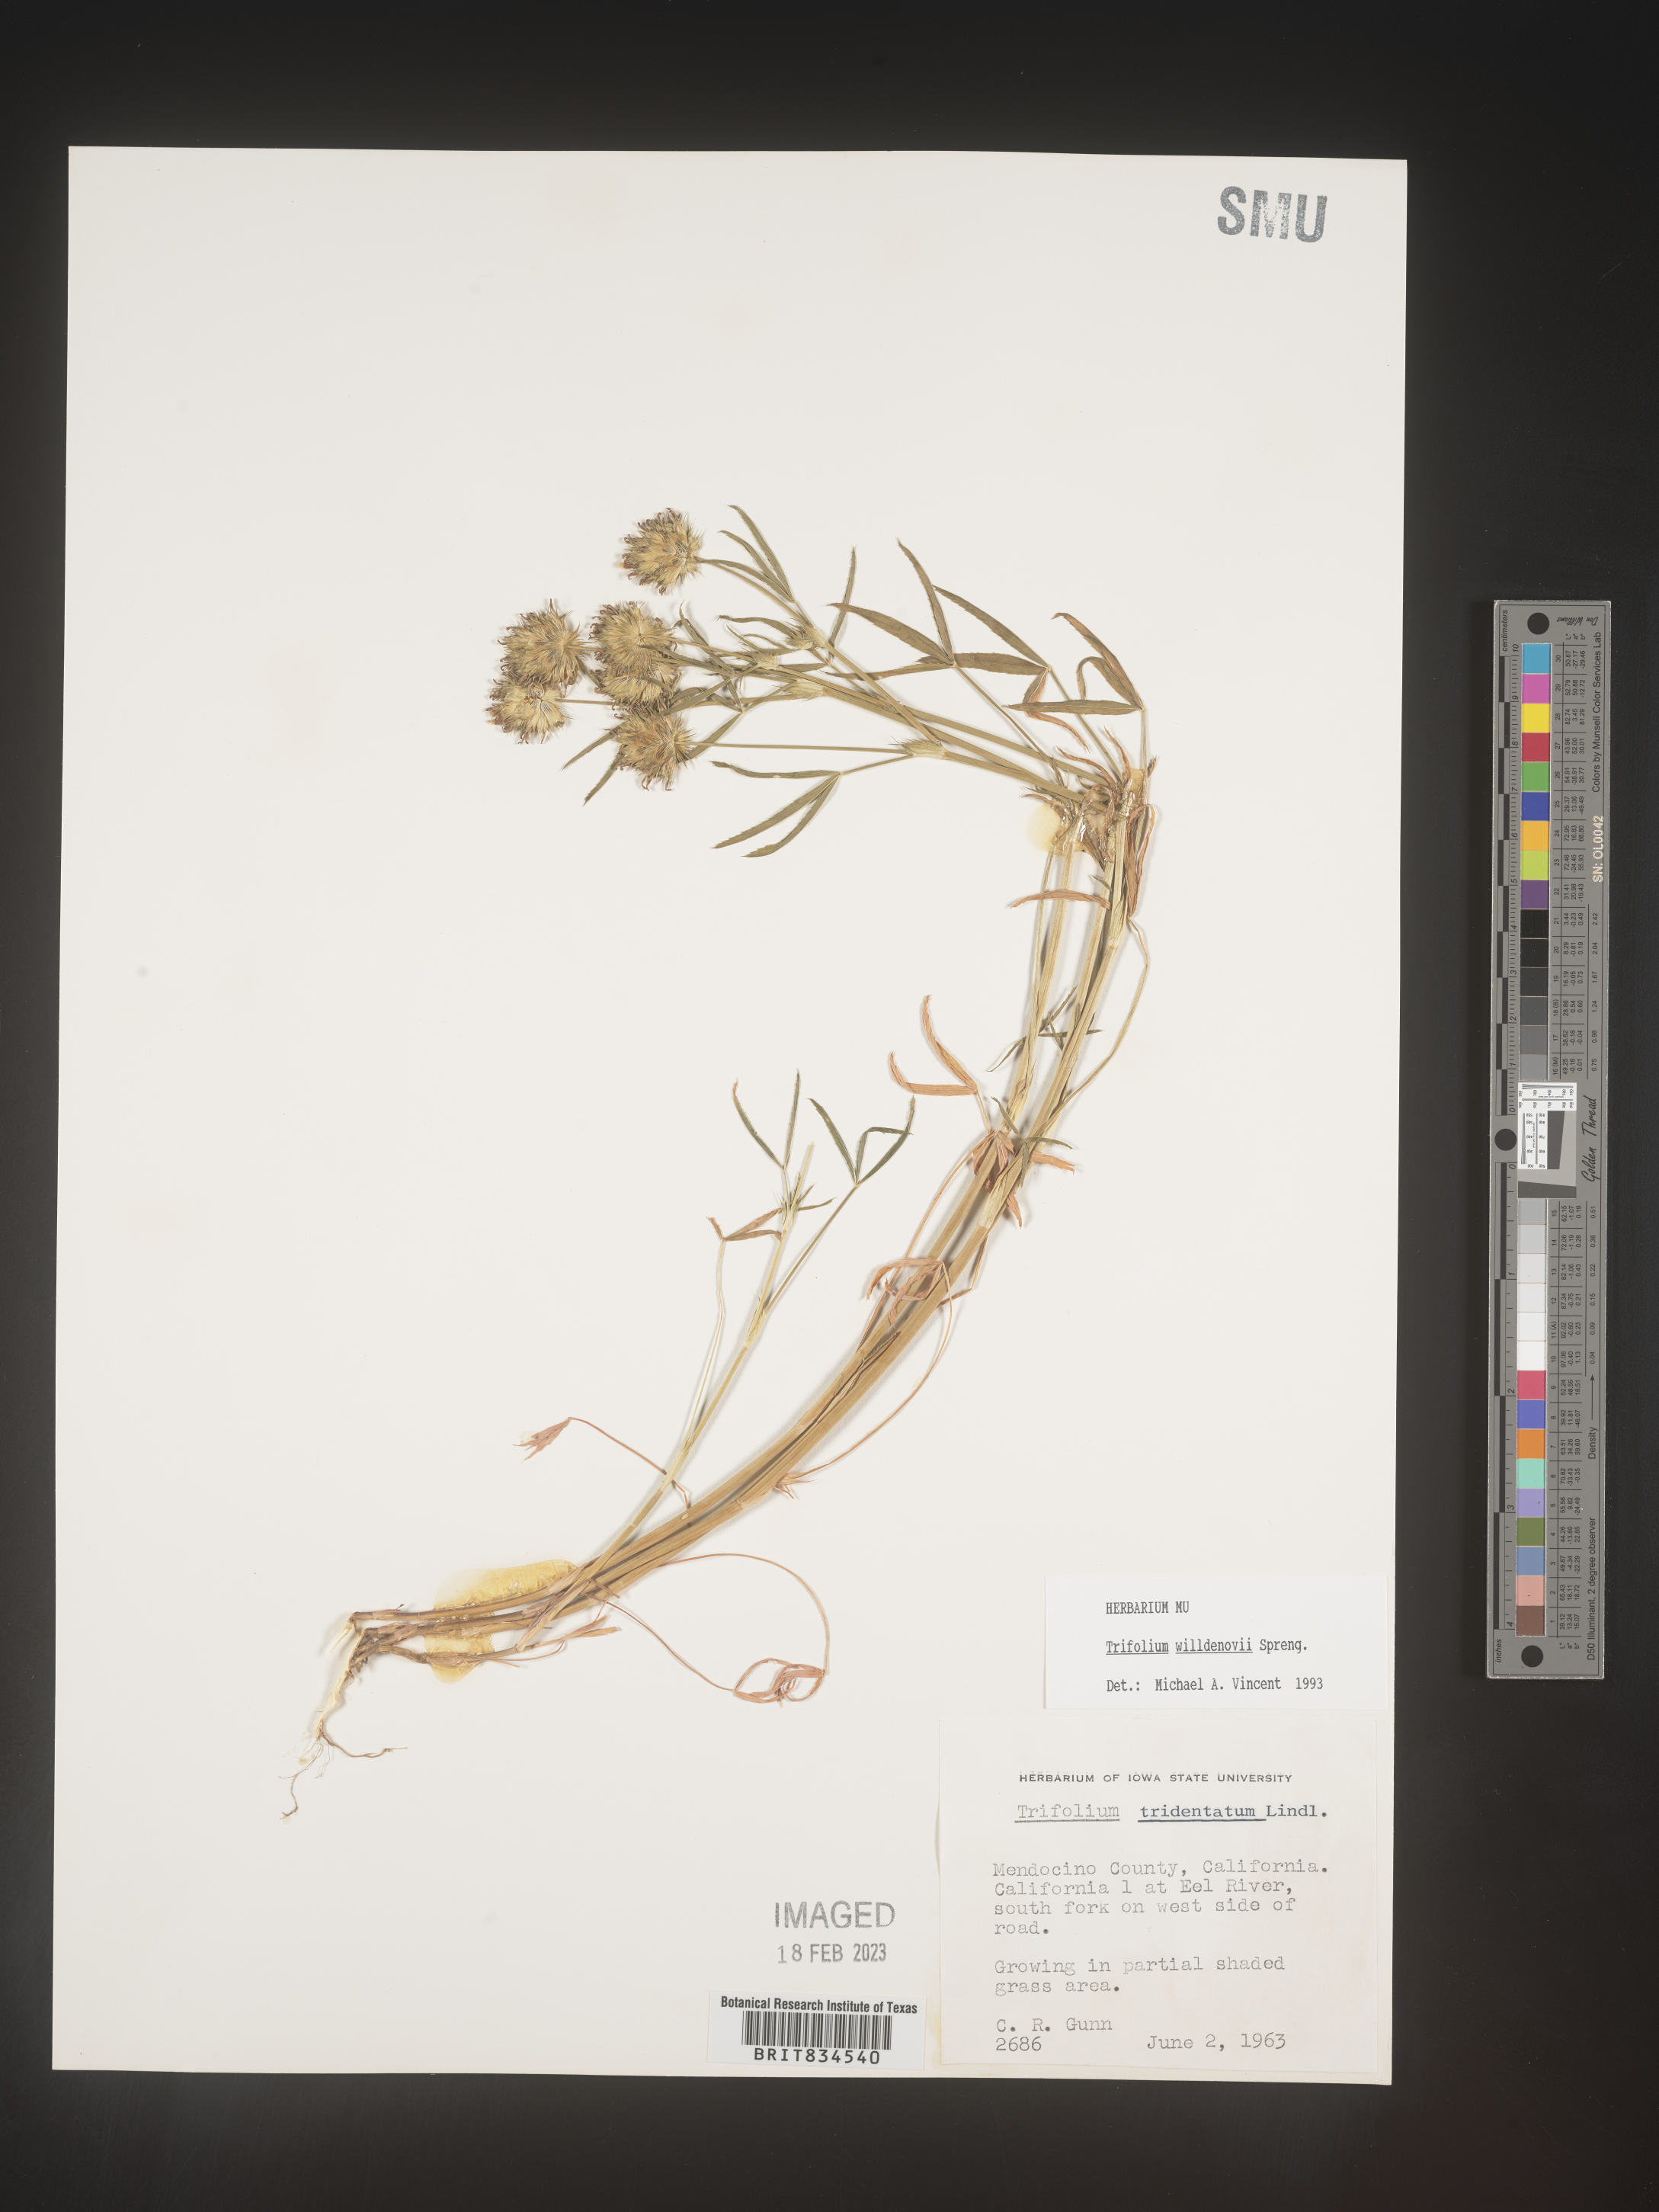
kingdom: Plantae
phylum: Tracheophyta
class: Magnoliopsida
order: Fabales
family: Fabaceae
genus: Trifolium
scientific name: Trifolium
